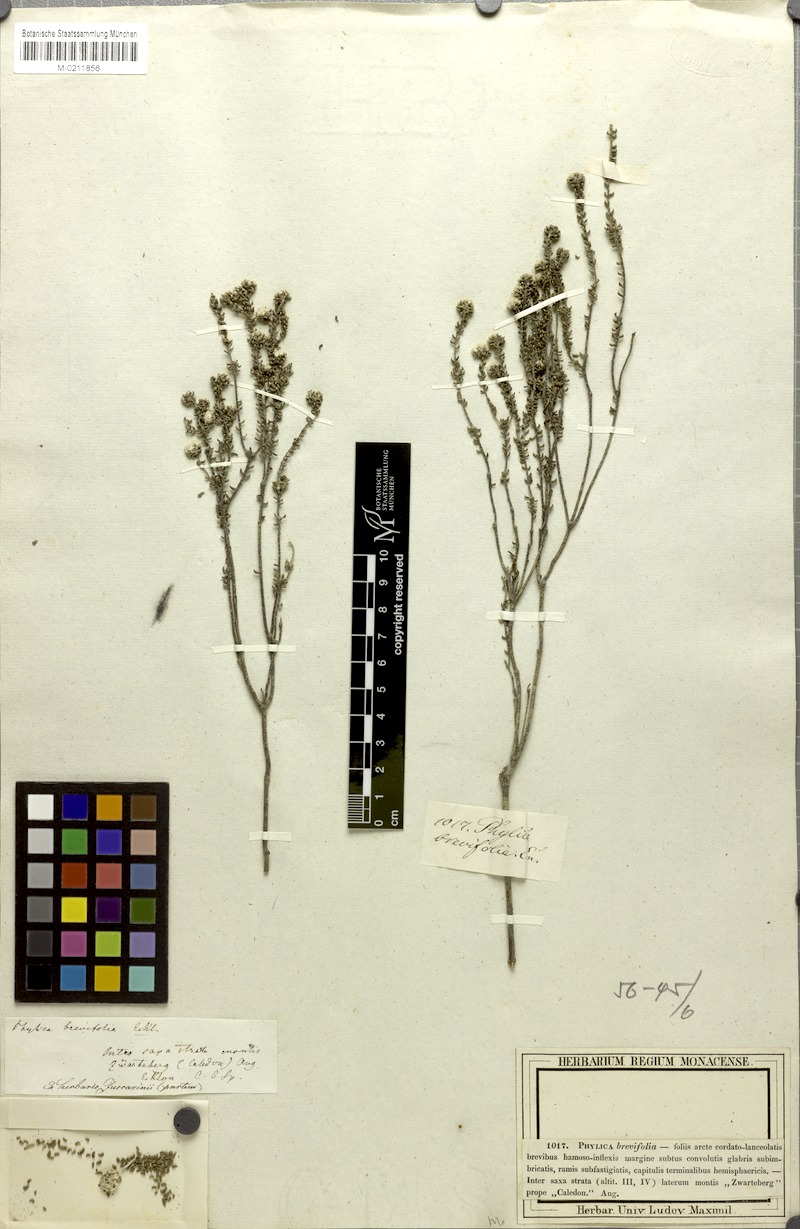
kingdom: Plantae
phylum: Tracheophyta
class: Magnoliopsida
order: Rosales
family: Rhamnaceae
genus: Phylica
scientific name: Phylica brevifolia
